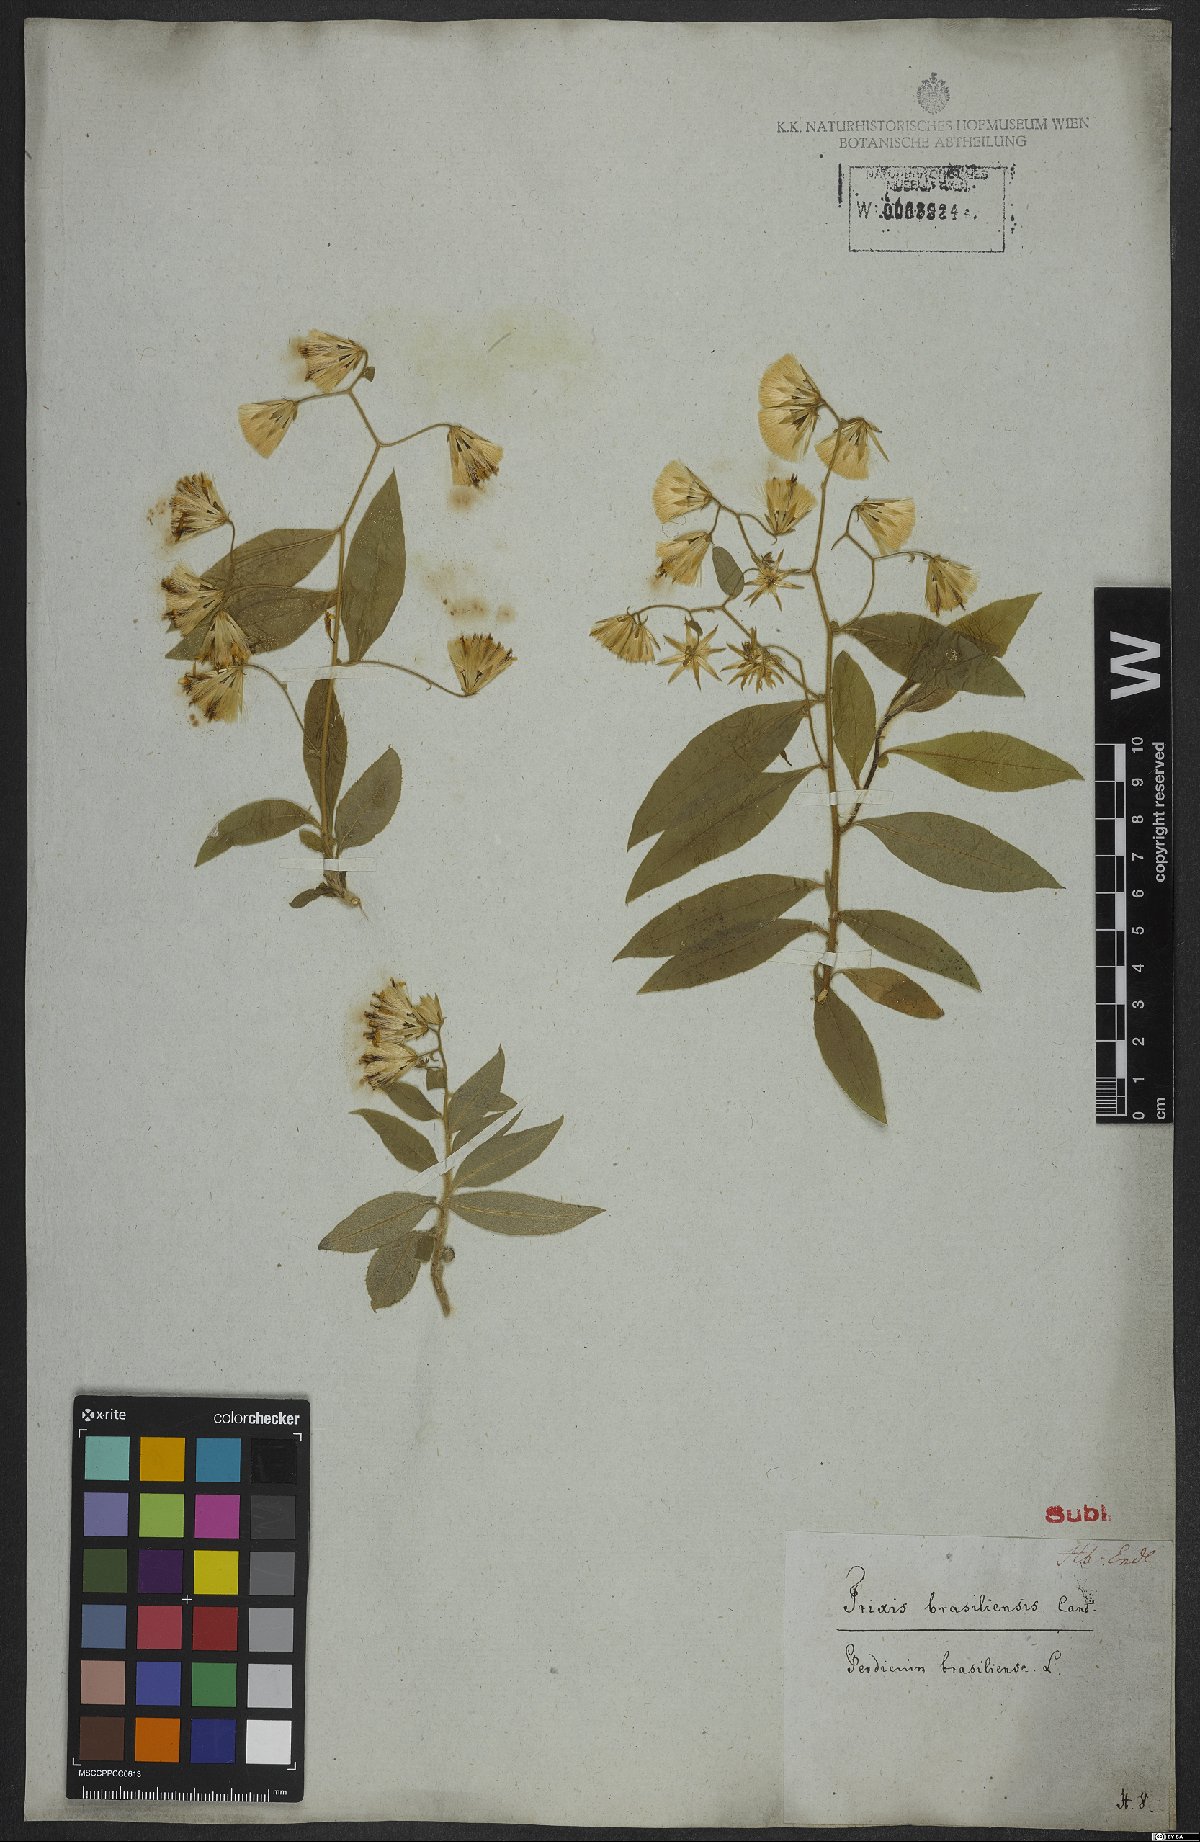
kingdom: Plantae
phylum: Tracheophyta
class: Magnoliopsida
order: Asterales
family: Asteraceae
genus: Holocheilus
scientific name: Holocheilus brasiliensis
